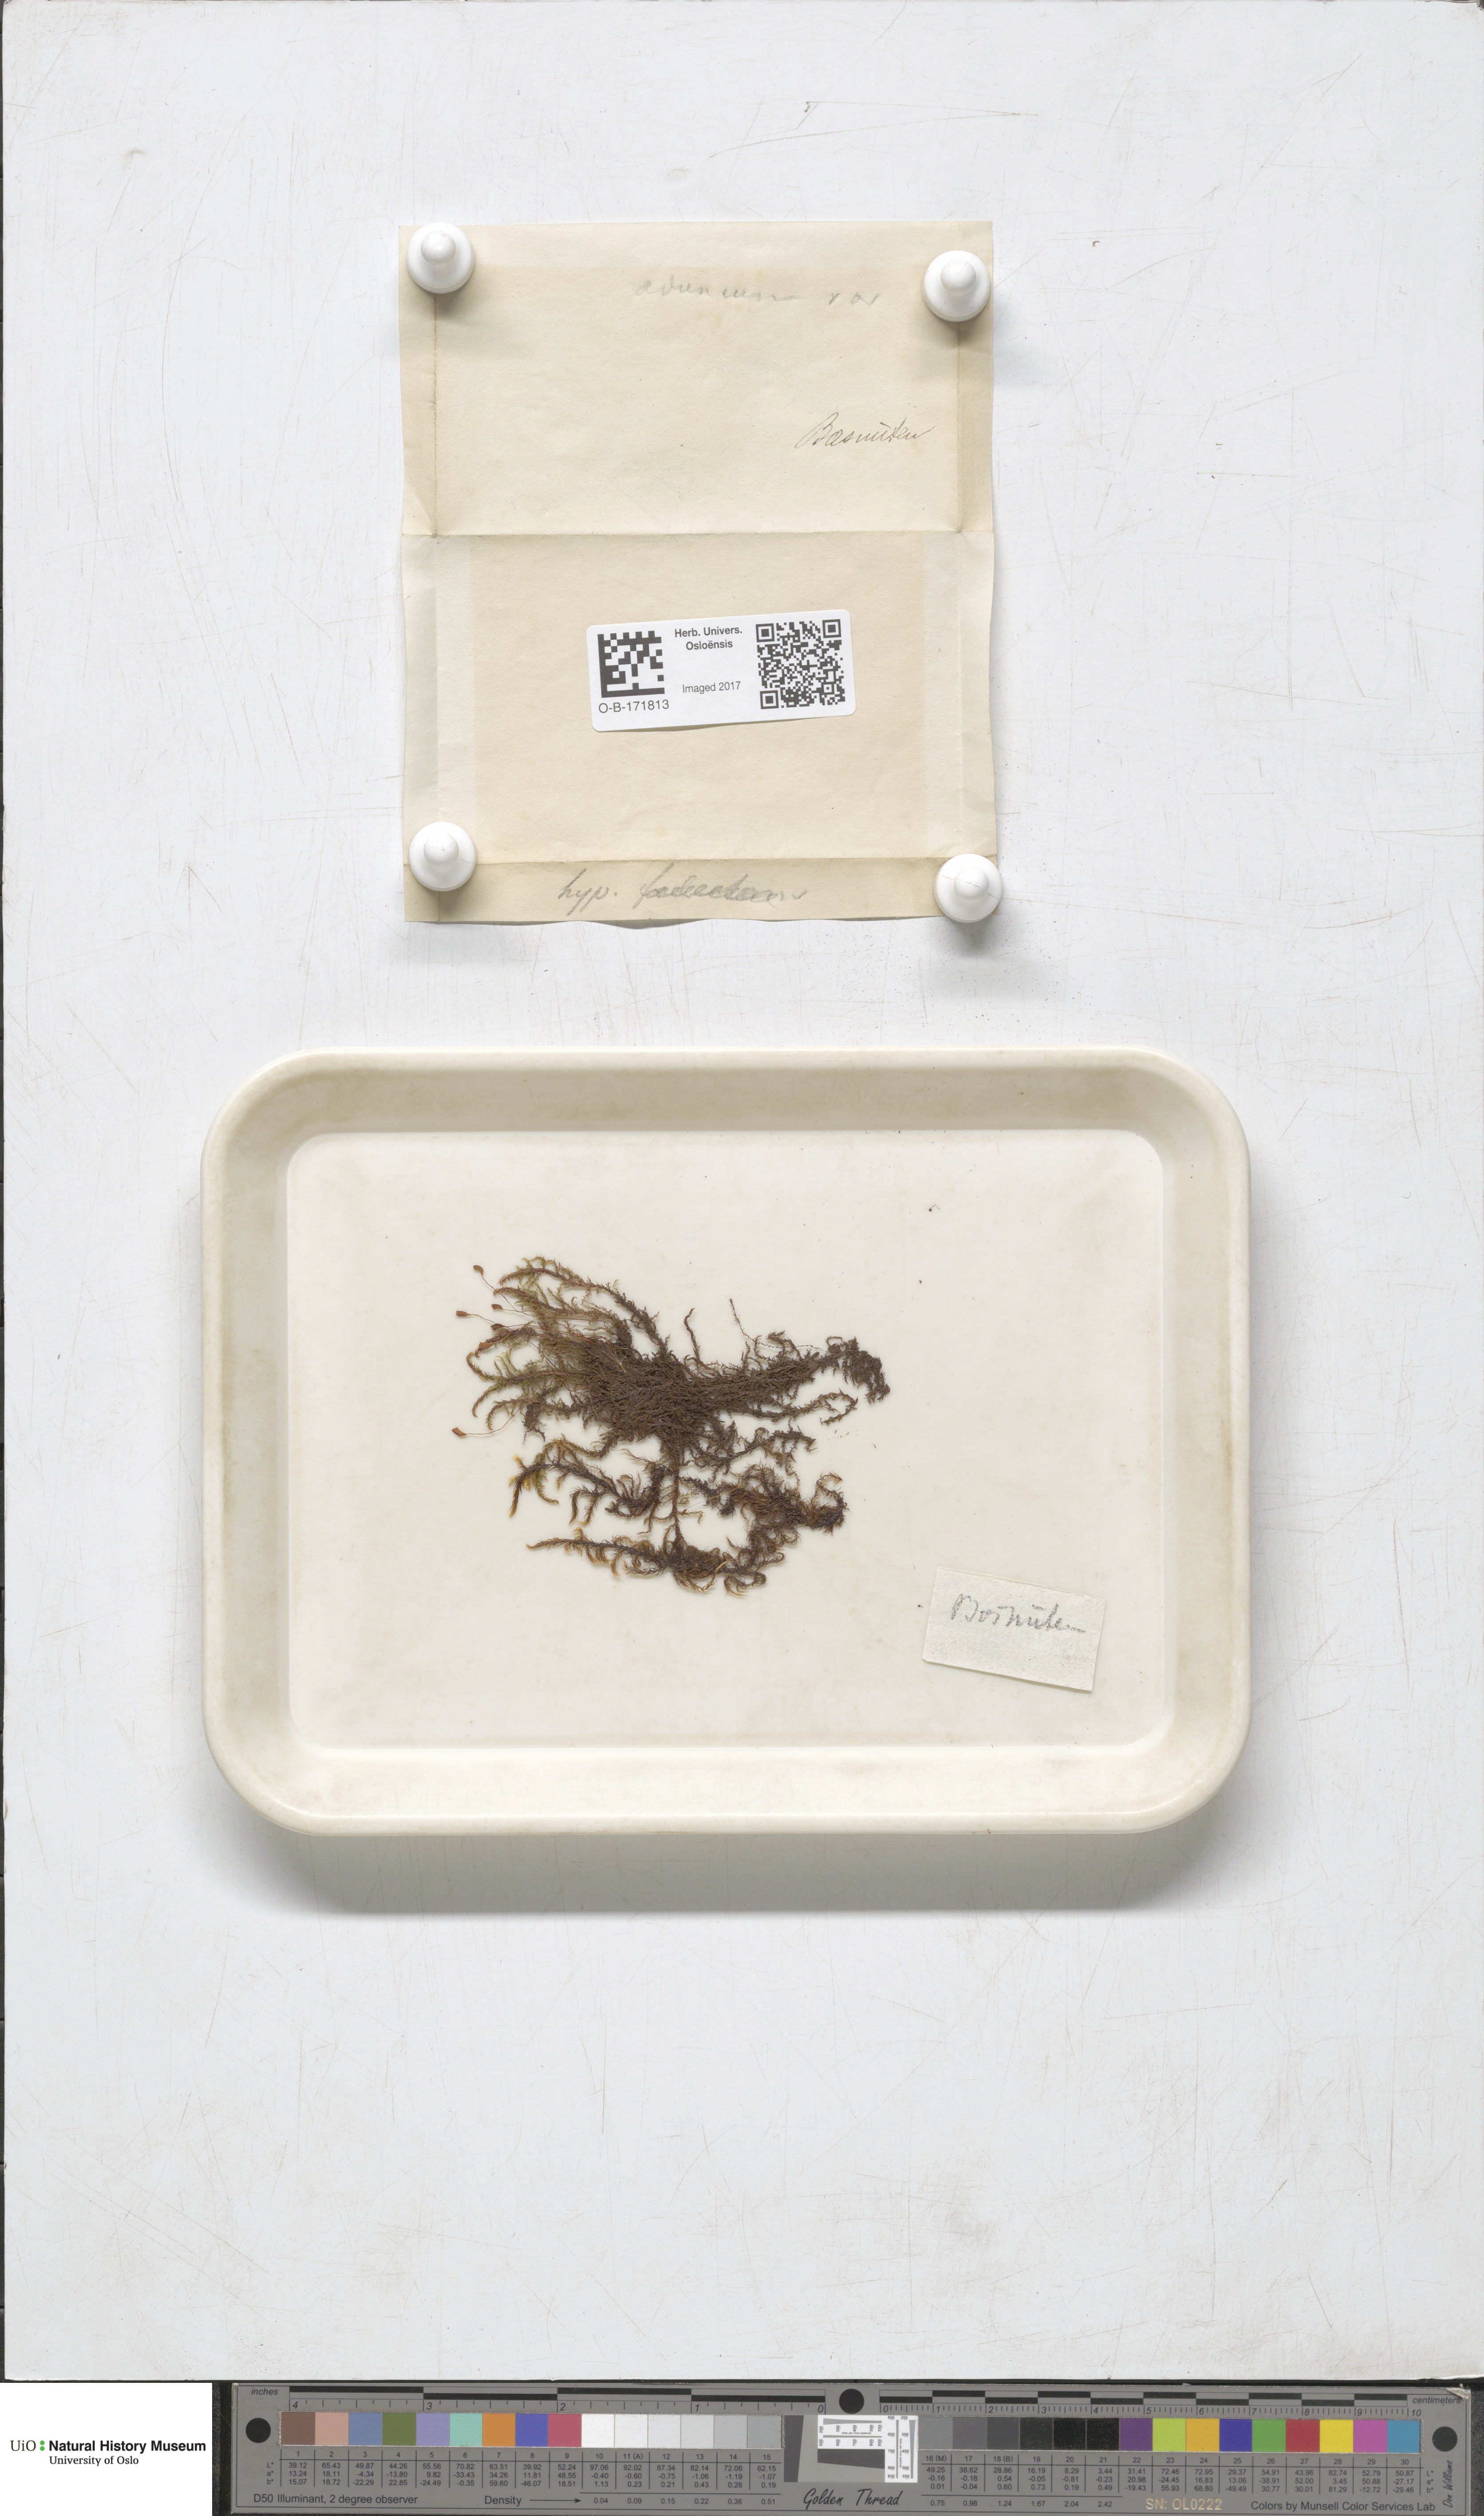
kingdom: Plantae
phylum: Bryophyta
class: Bryopsida
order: Hypnales
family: Amblystegiaceae
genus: Drepanocladus
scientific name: Drepanocladus aduncus
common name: Knieff's hook moss
